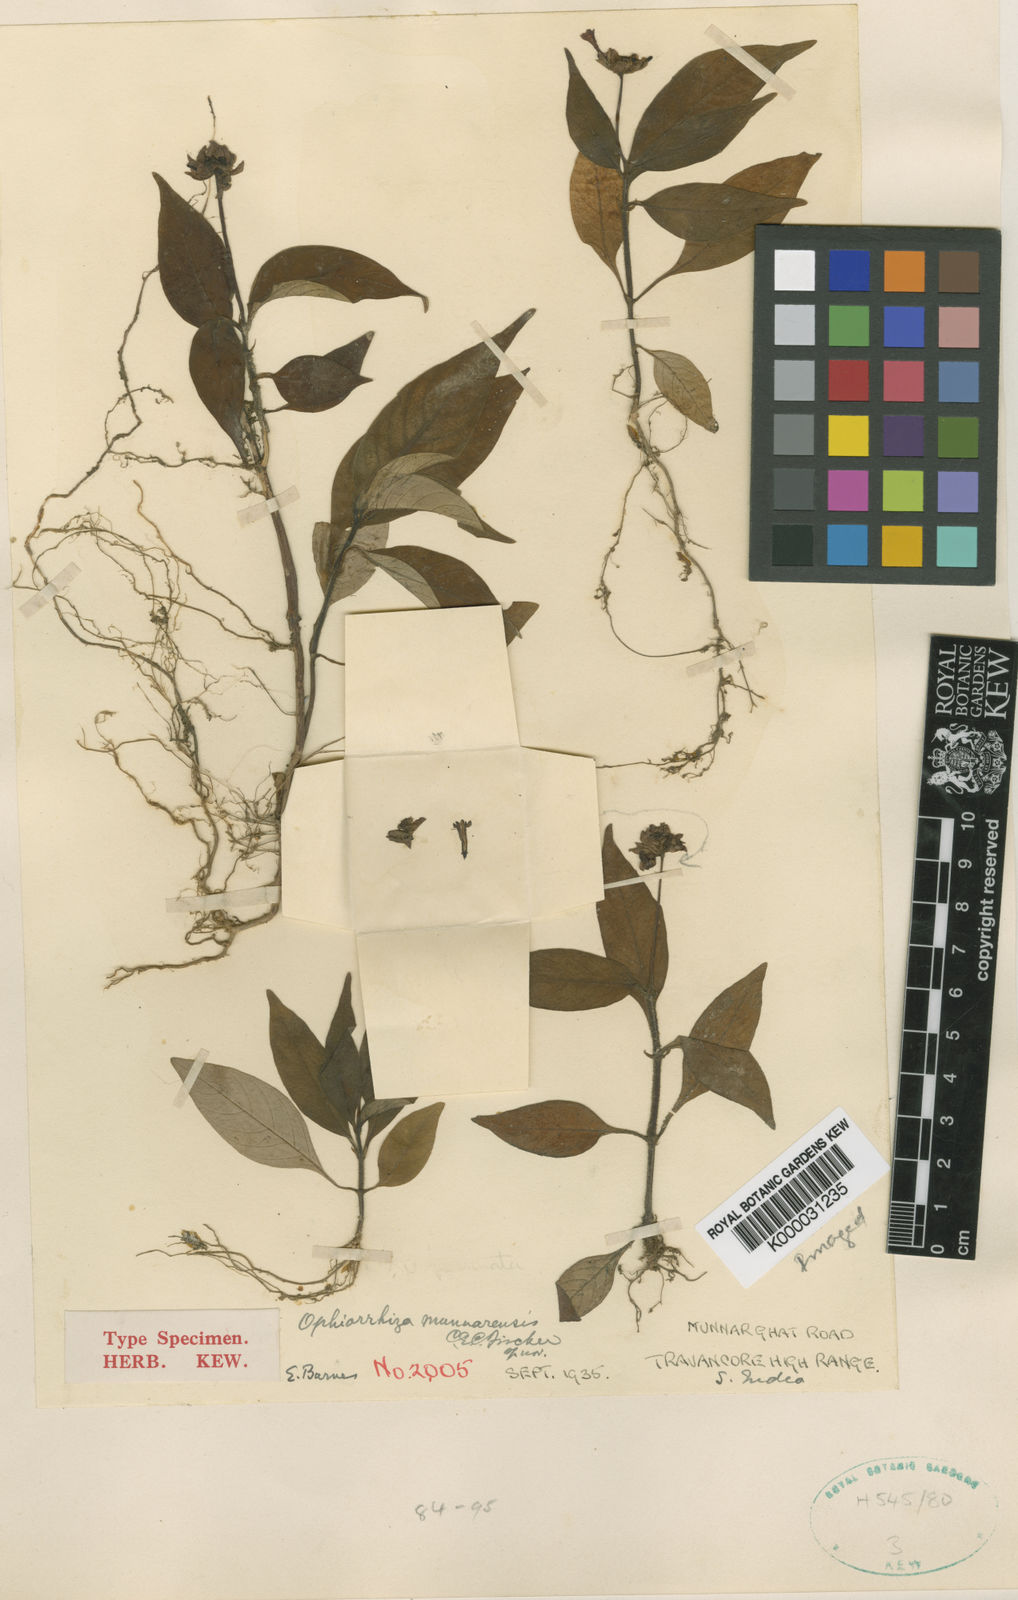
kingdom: Plantae
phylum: Tracheophyta
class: Magnoliopsida
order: Gentianales
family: Rubiaceae
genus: Ophiorrhiza
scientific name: Ophiorrhiza munnarensis
